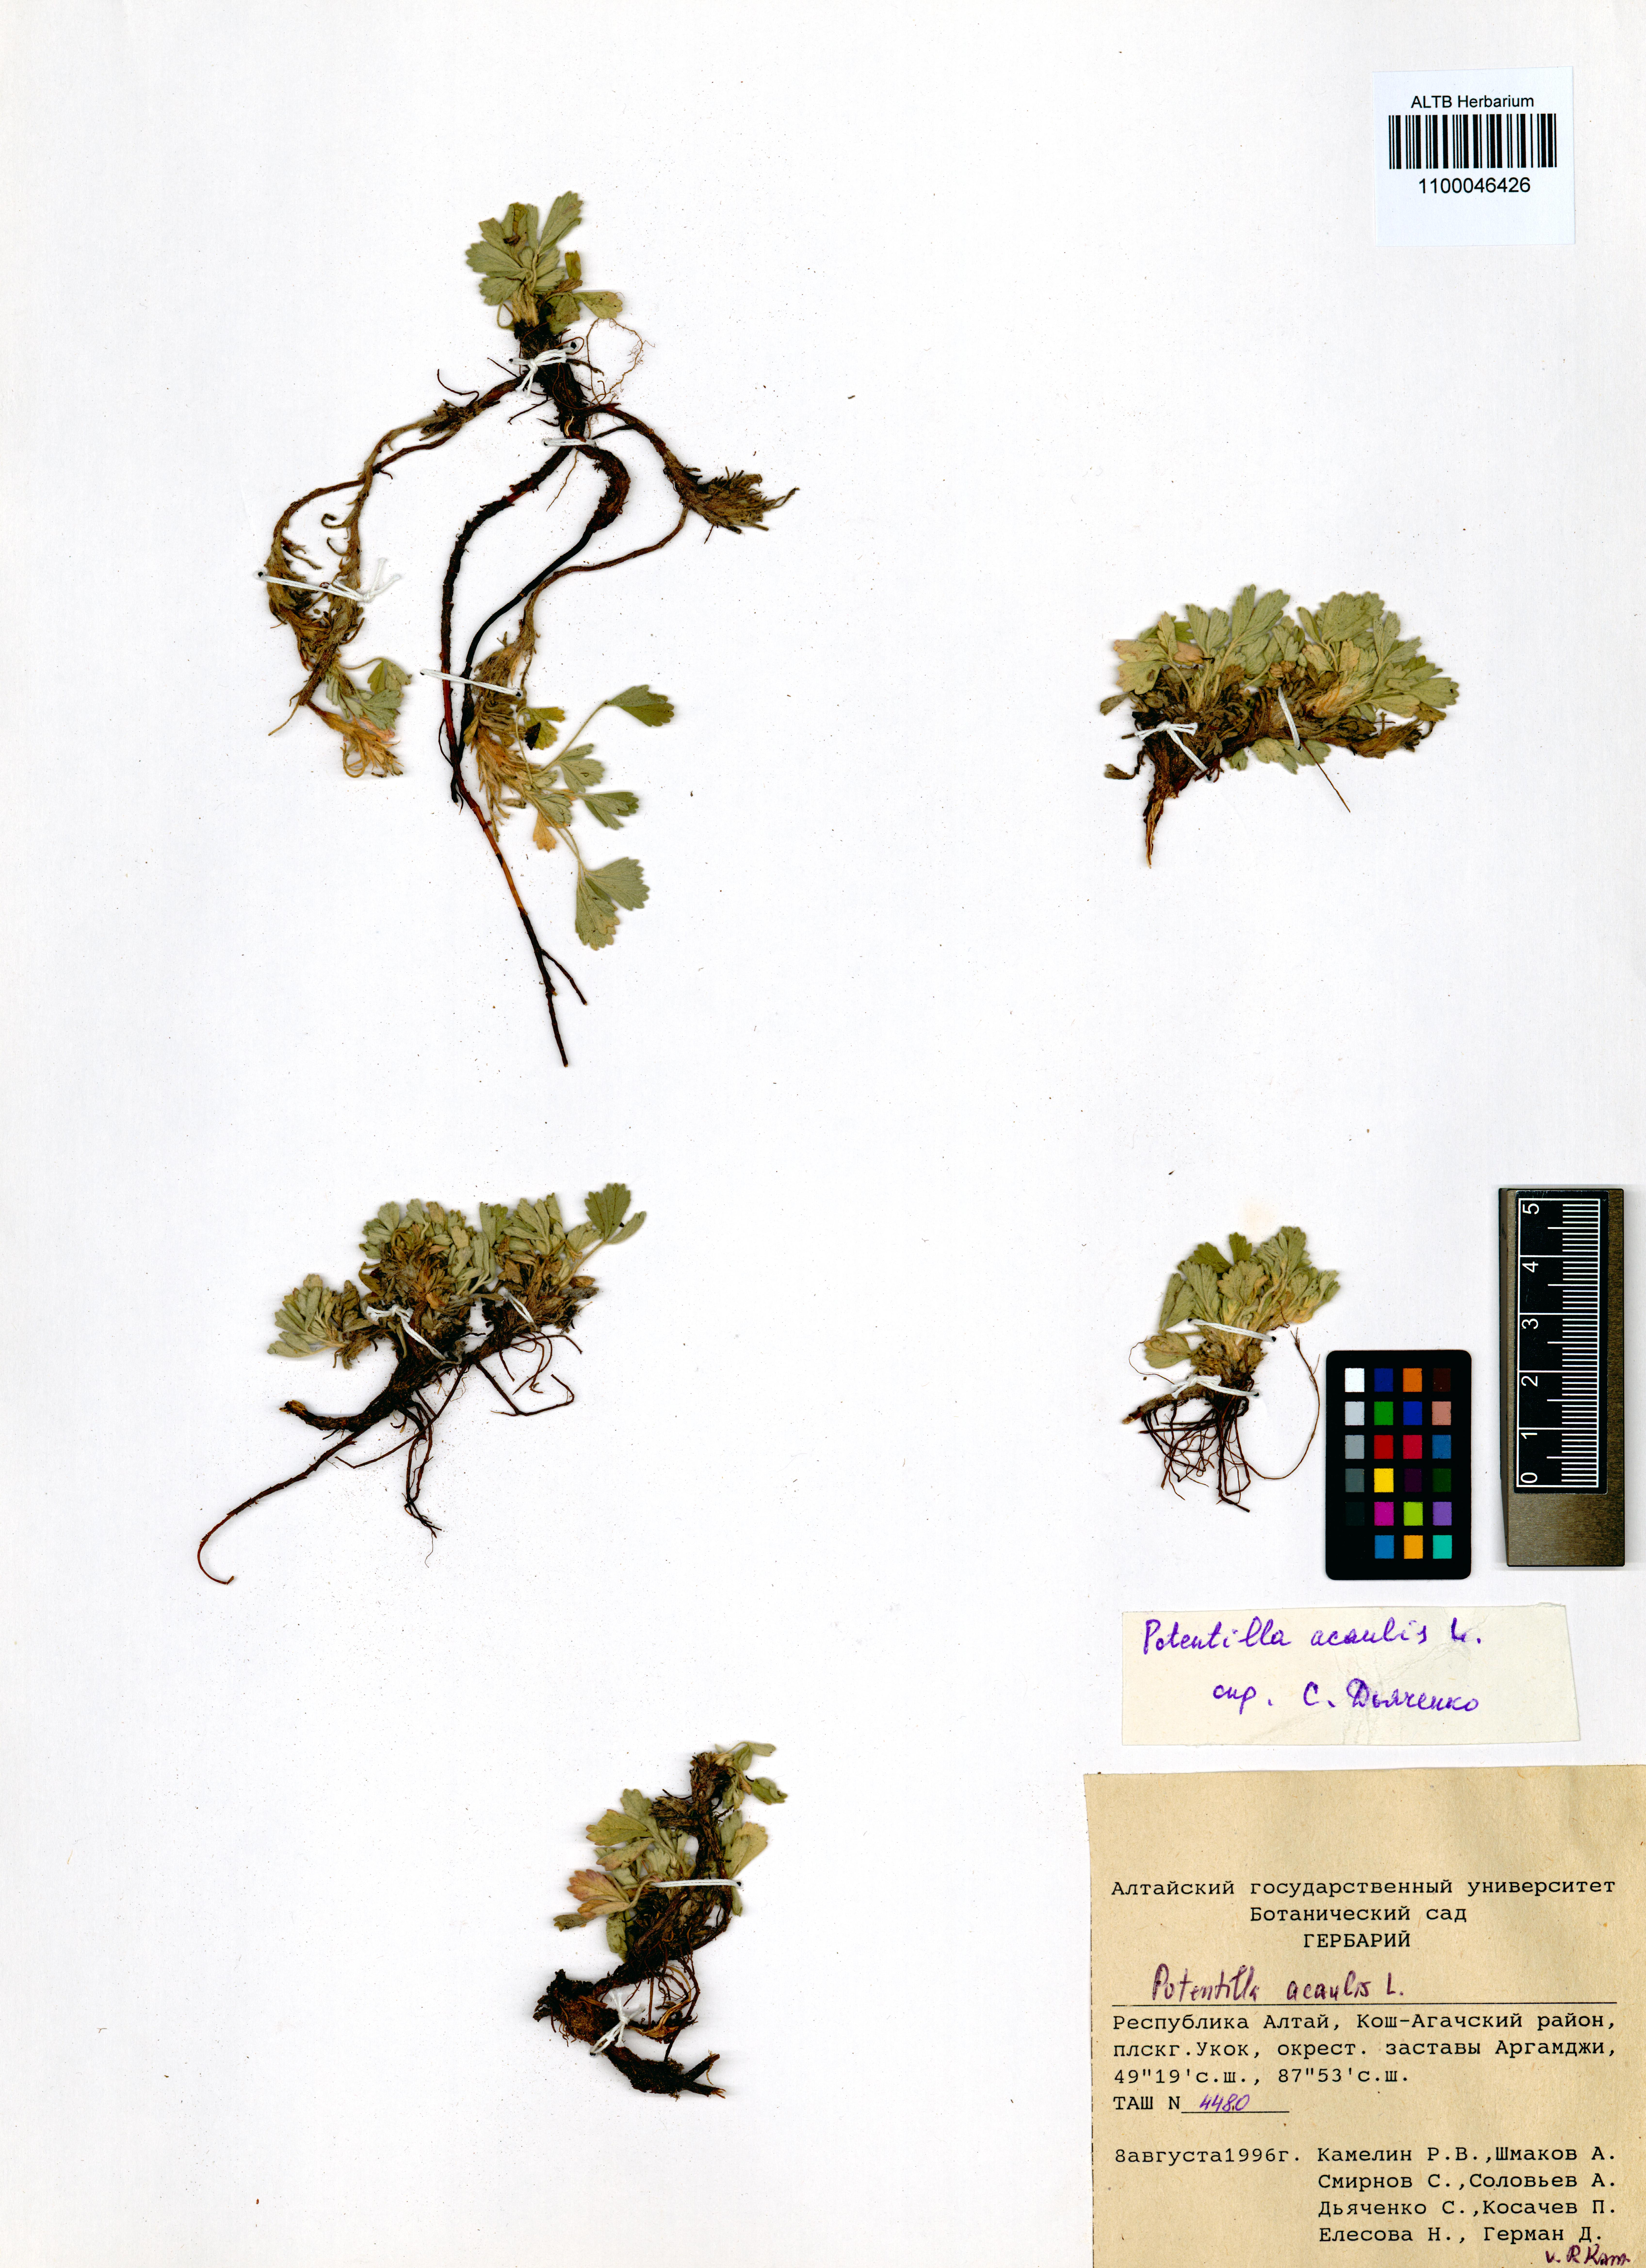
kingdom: Plantae
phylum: Tracheophyta
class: Magnoliopsida
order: Rosales
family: Rosaceae
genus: Potentilla
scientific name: Potentilla acaulis
